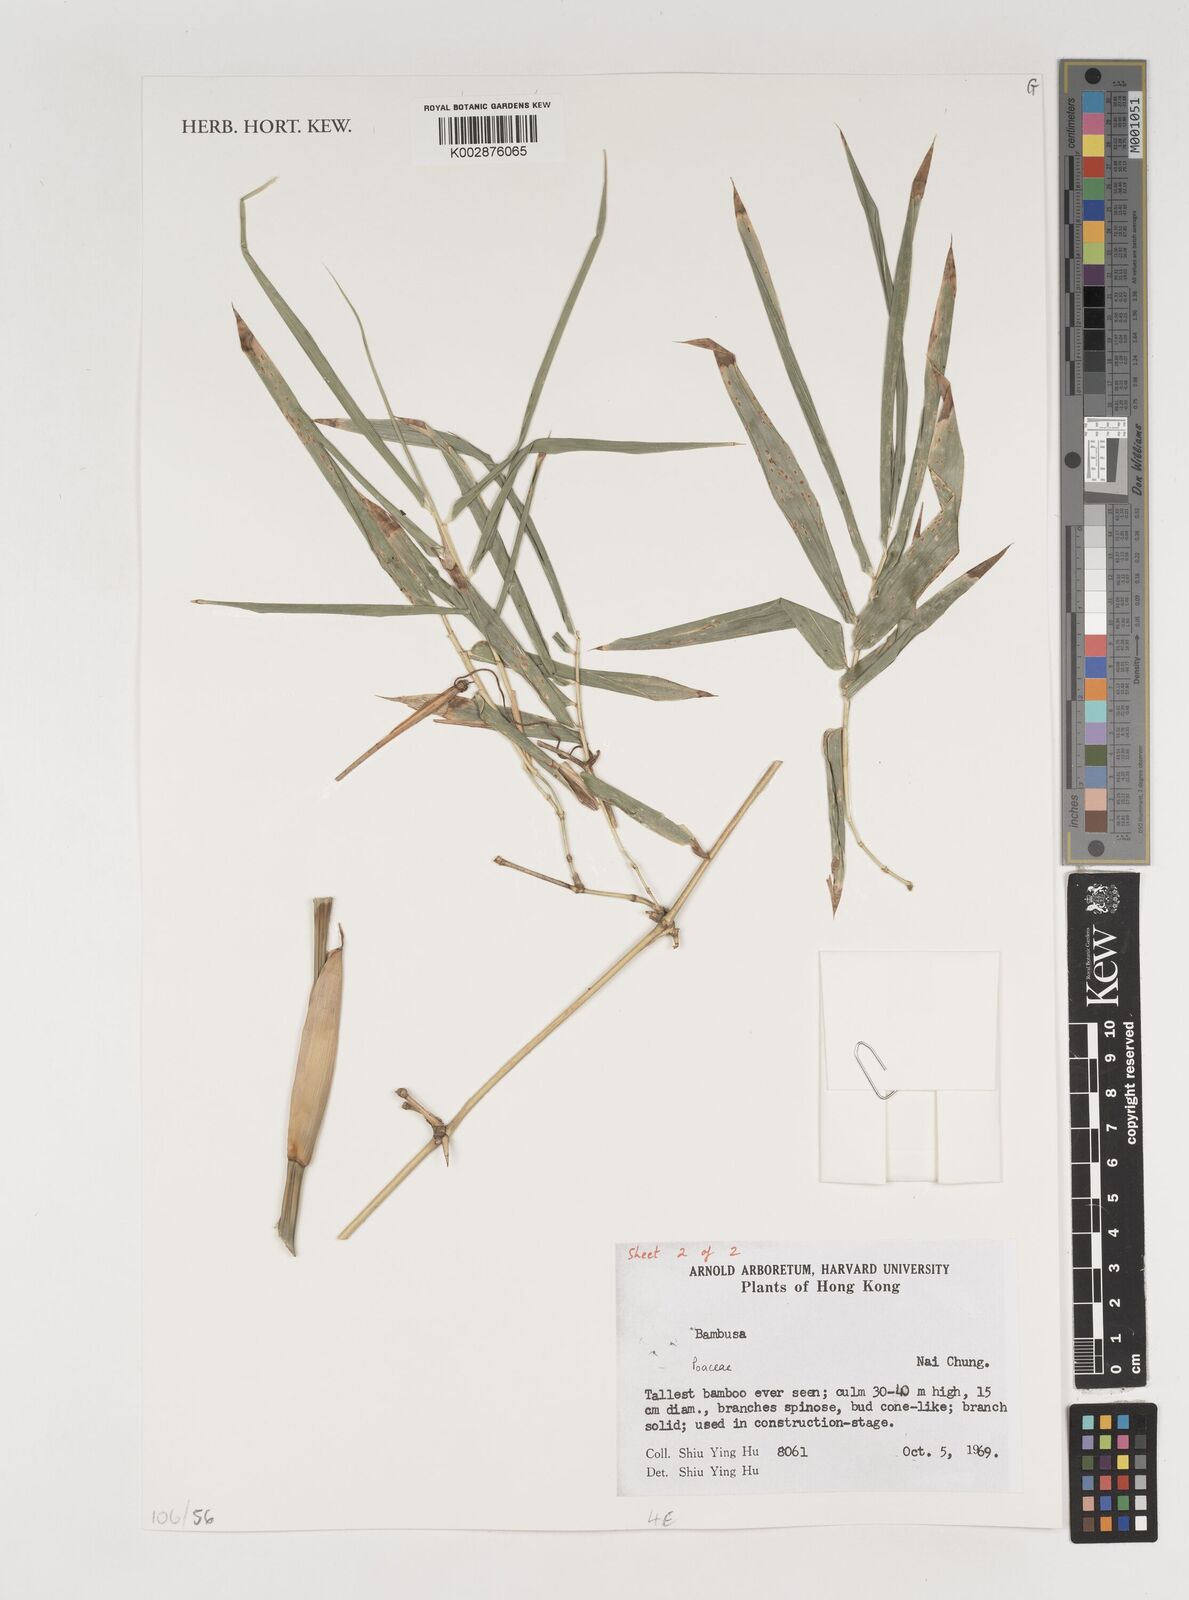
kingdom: Plantae
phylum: Tracheophyta
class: Liliopsida
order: Poales
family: Poaceae
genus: Bambusa
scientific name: Bambusa
